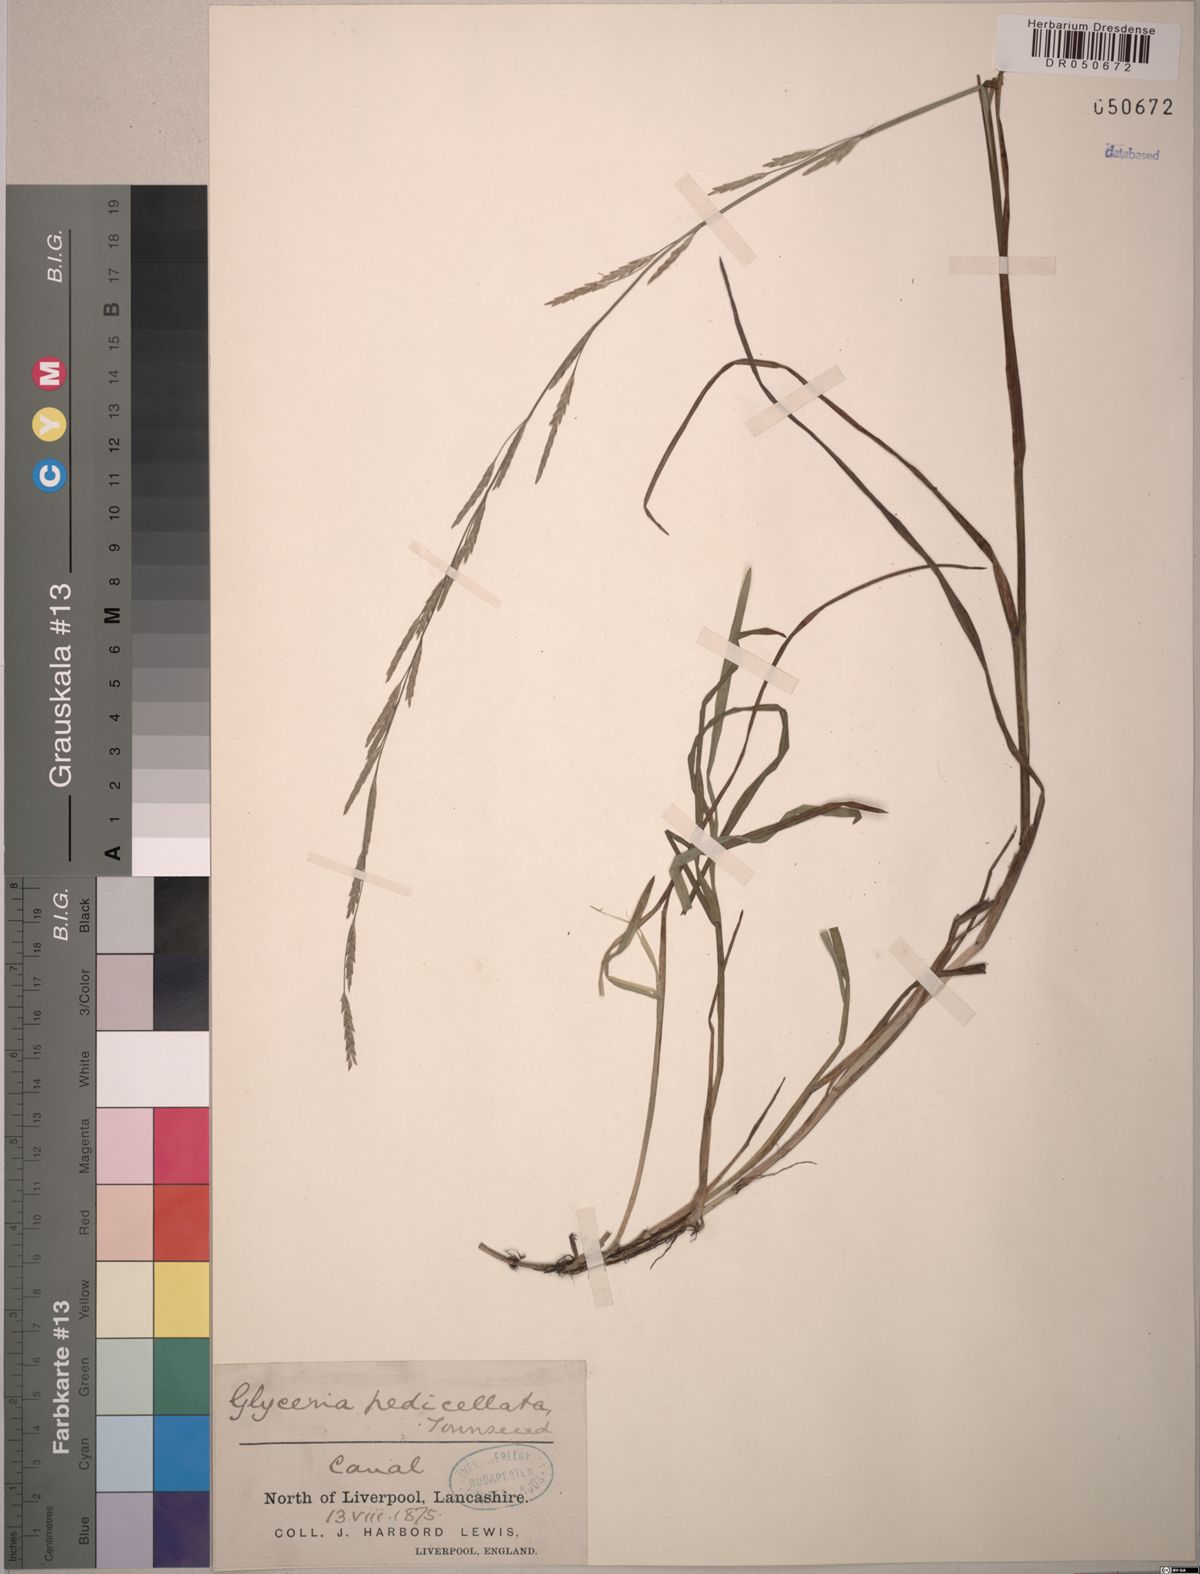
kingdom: Plantae
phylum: Tracheophyta
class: Liliopsida
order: Poales
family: Poaceae
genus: Glyceria
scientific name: Glyceria pedicellata
